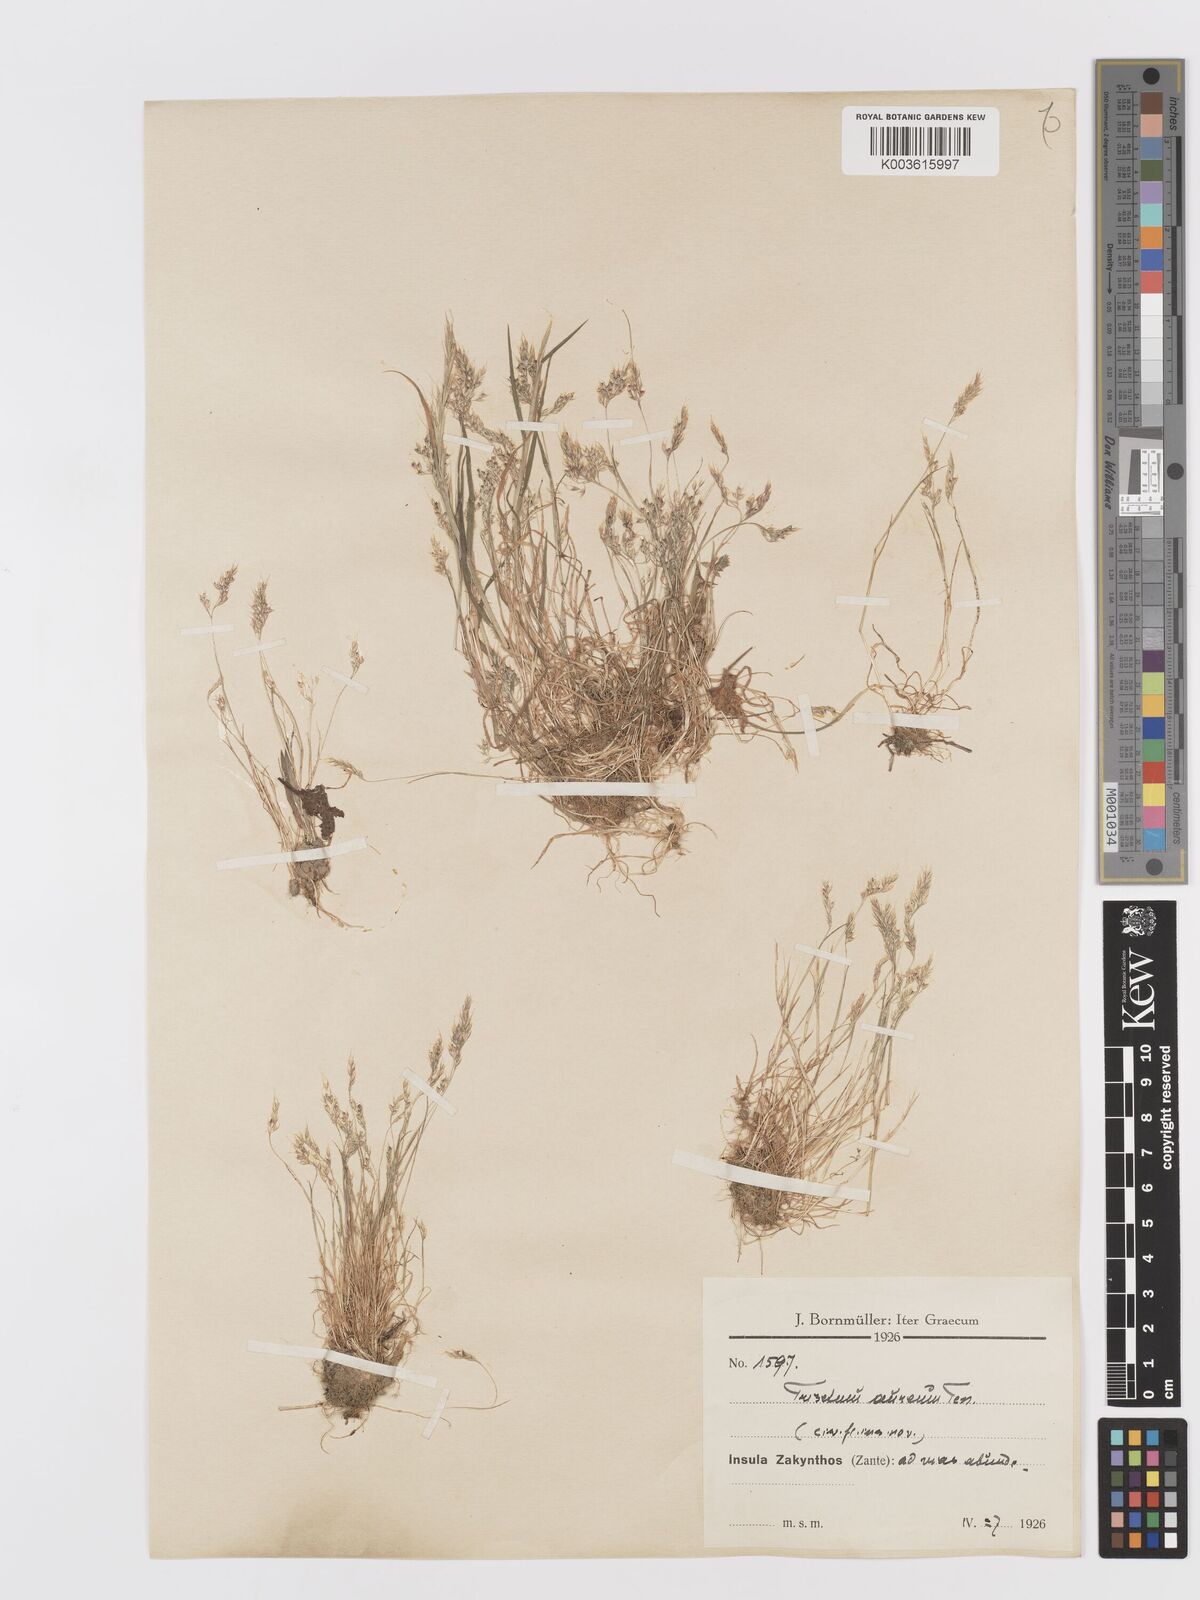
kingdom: Plantae
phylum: Tracheophyta
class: Liliopsida
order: Poales
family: Poaceae
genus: Trisetaria
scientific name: Trisetaria aurea
